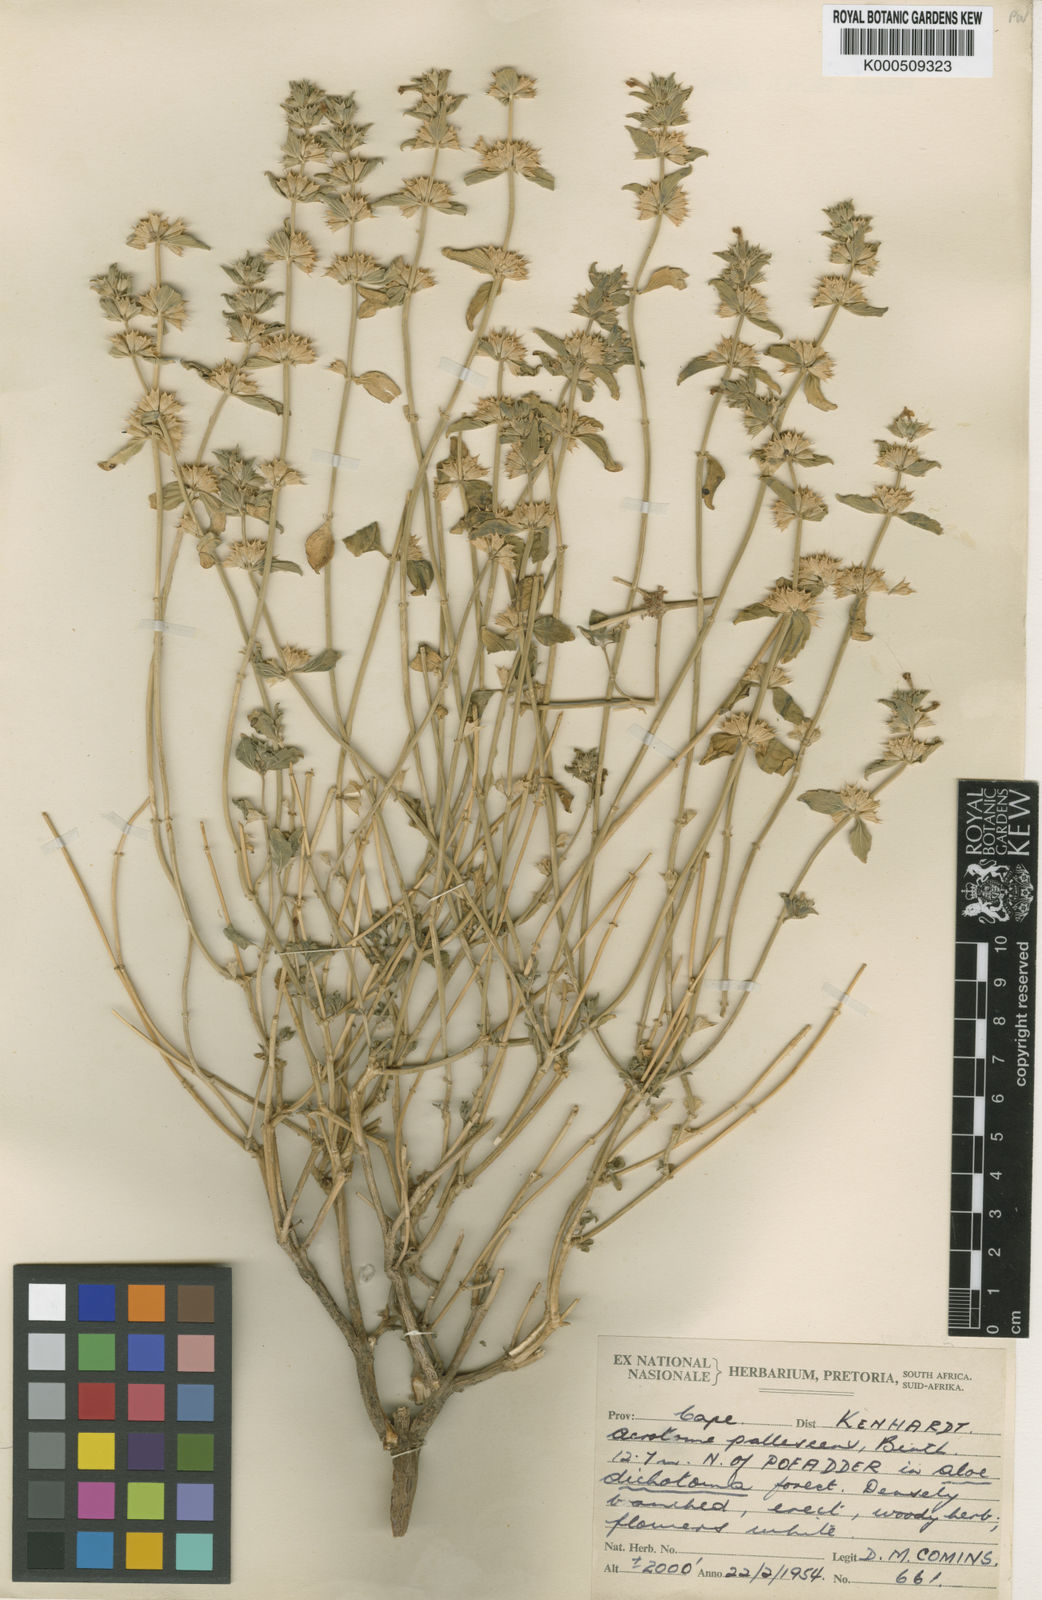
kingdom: Plantae
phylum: Tracheophyta
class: Magnoliopsida
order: Lamiales
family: Lamiaceae
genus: Acrotome
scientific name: Acrotome pallescens
